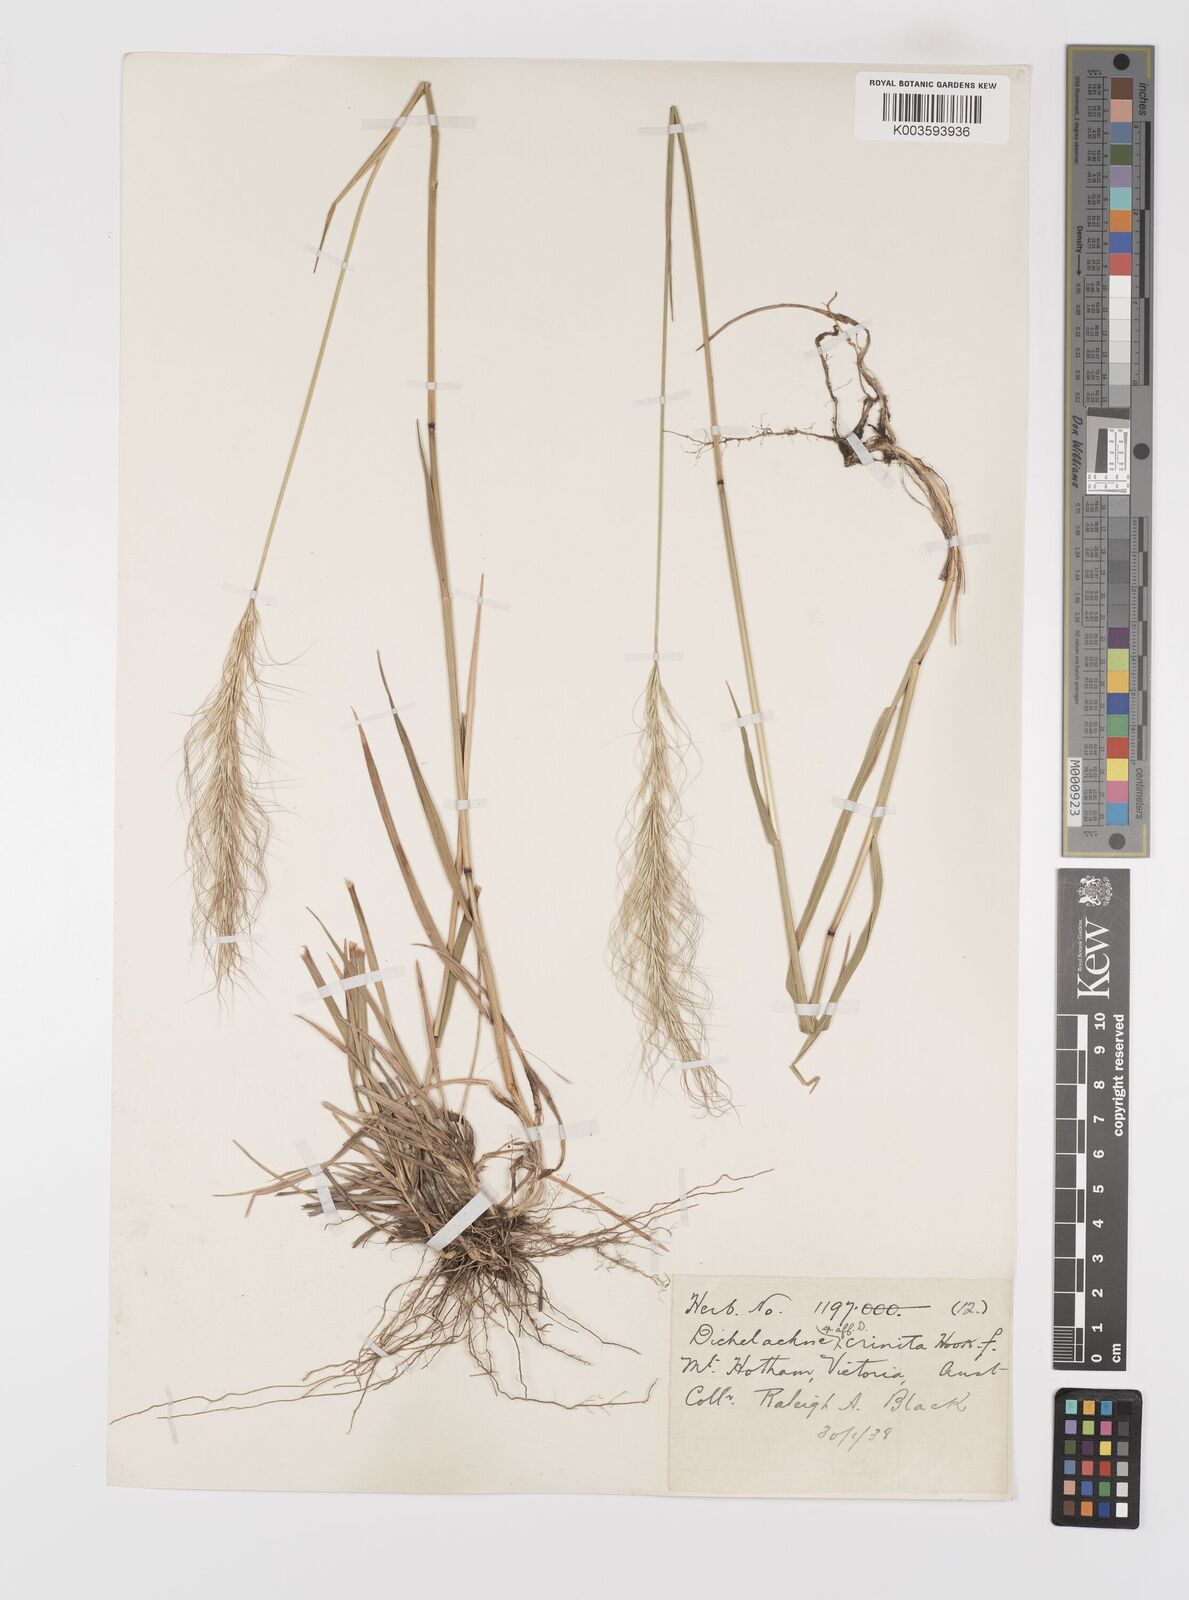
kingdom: Plantae
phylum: Tracheophyta
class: Liliopsida
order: Poales
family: Poaceae
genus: Dichelachne
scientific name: Dichelachne crinita
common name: Clovenfoot plumegrass
